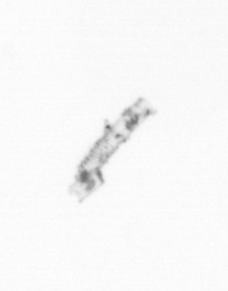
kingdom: Chromista
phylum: Ochrophyta
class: Bacillariophyceae
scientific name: Bacillariophyceae
